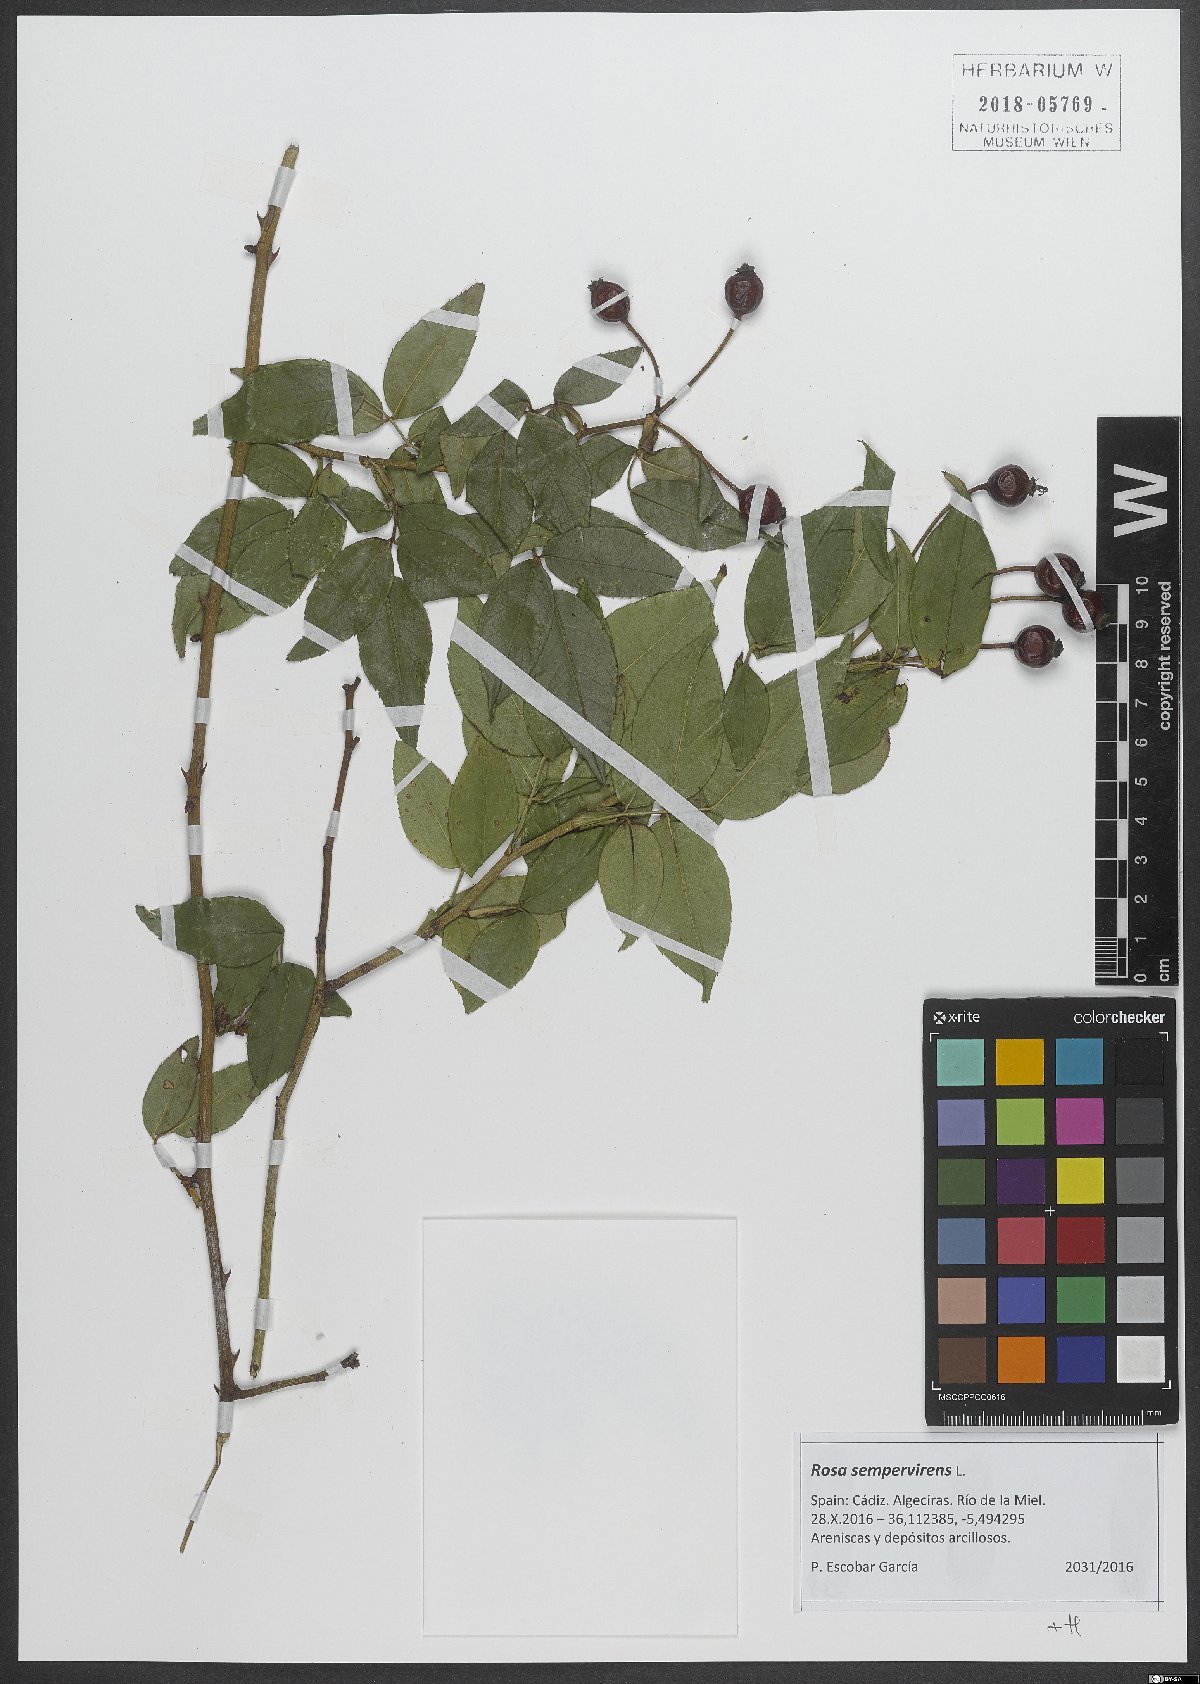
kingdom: Plantae
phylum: Tracheophyta
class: Magnoliopsida
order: Rosales
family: Rosaceae
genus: Rosa
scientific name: Rosa sempervirens
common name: Evergreen rose
